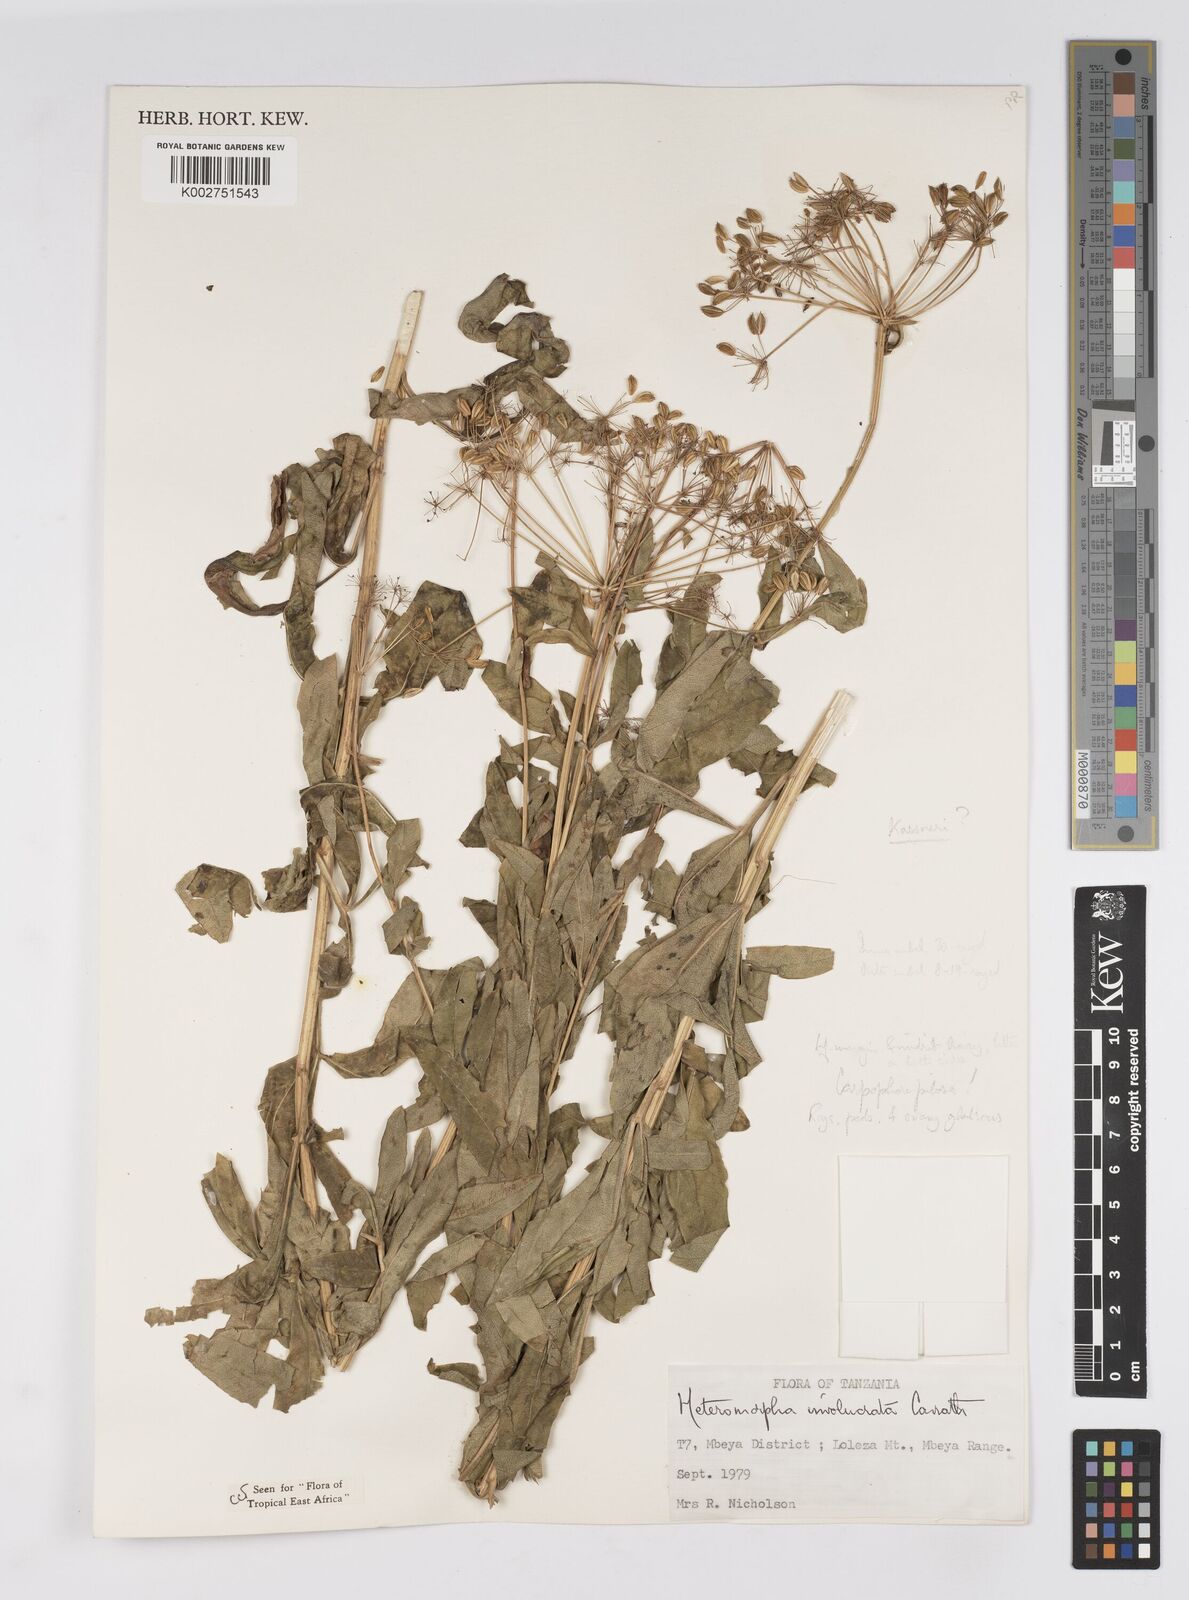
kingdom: Plantae
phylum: Tracheophyta
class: Magnoliopsida
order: Apiales
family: Apiaceae
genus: Heteromorpha
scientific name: Heteromorpha involucrata
